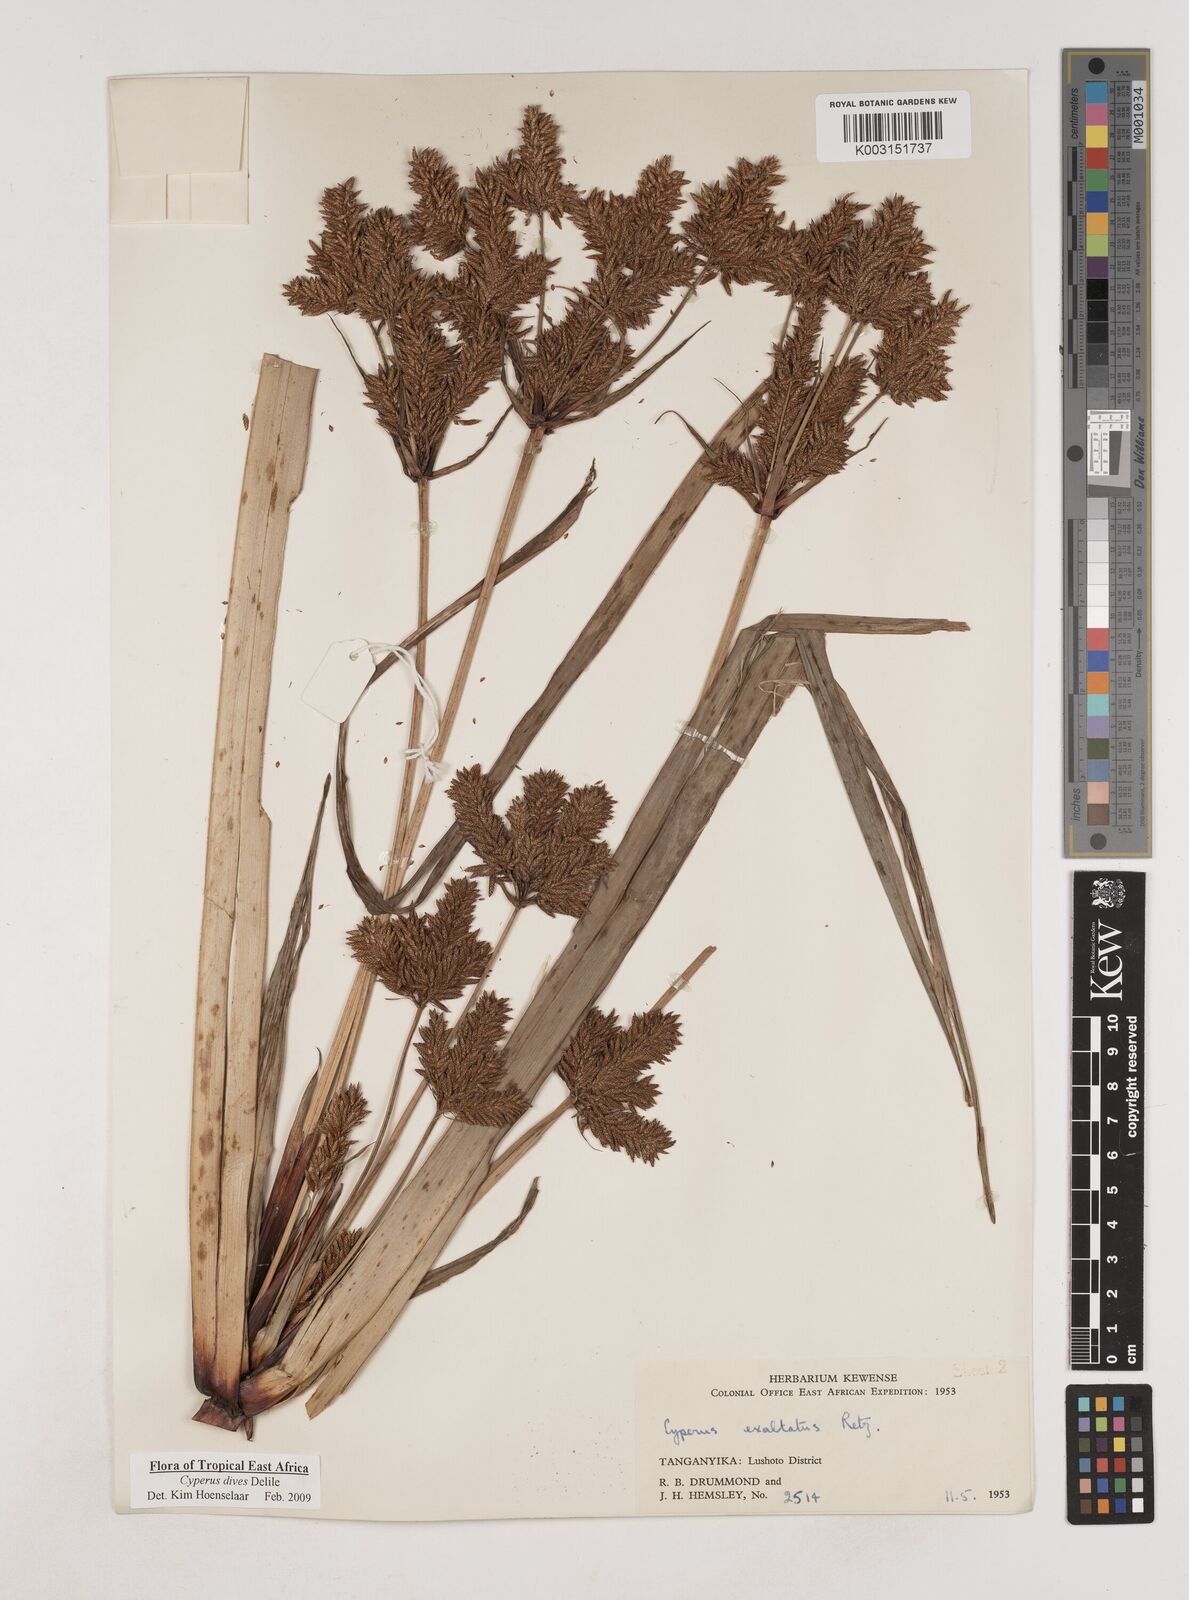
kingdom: Plantae
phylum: Tracheophyta
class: Liliopsida
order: Poales
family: Cyperaceae
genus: Cyperus
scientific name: Cyperus dives
